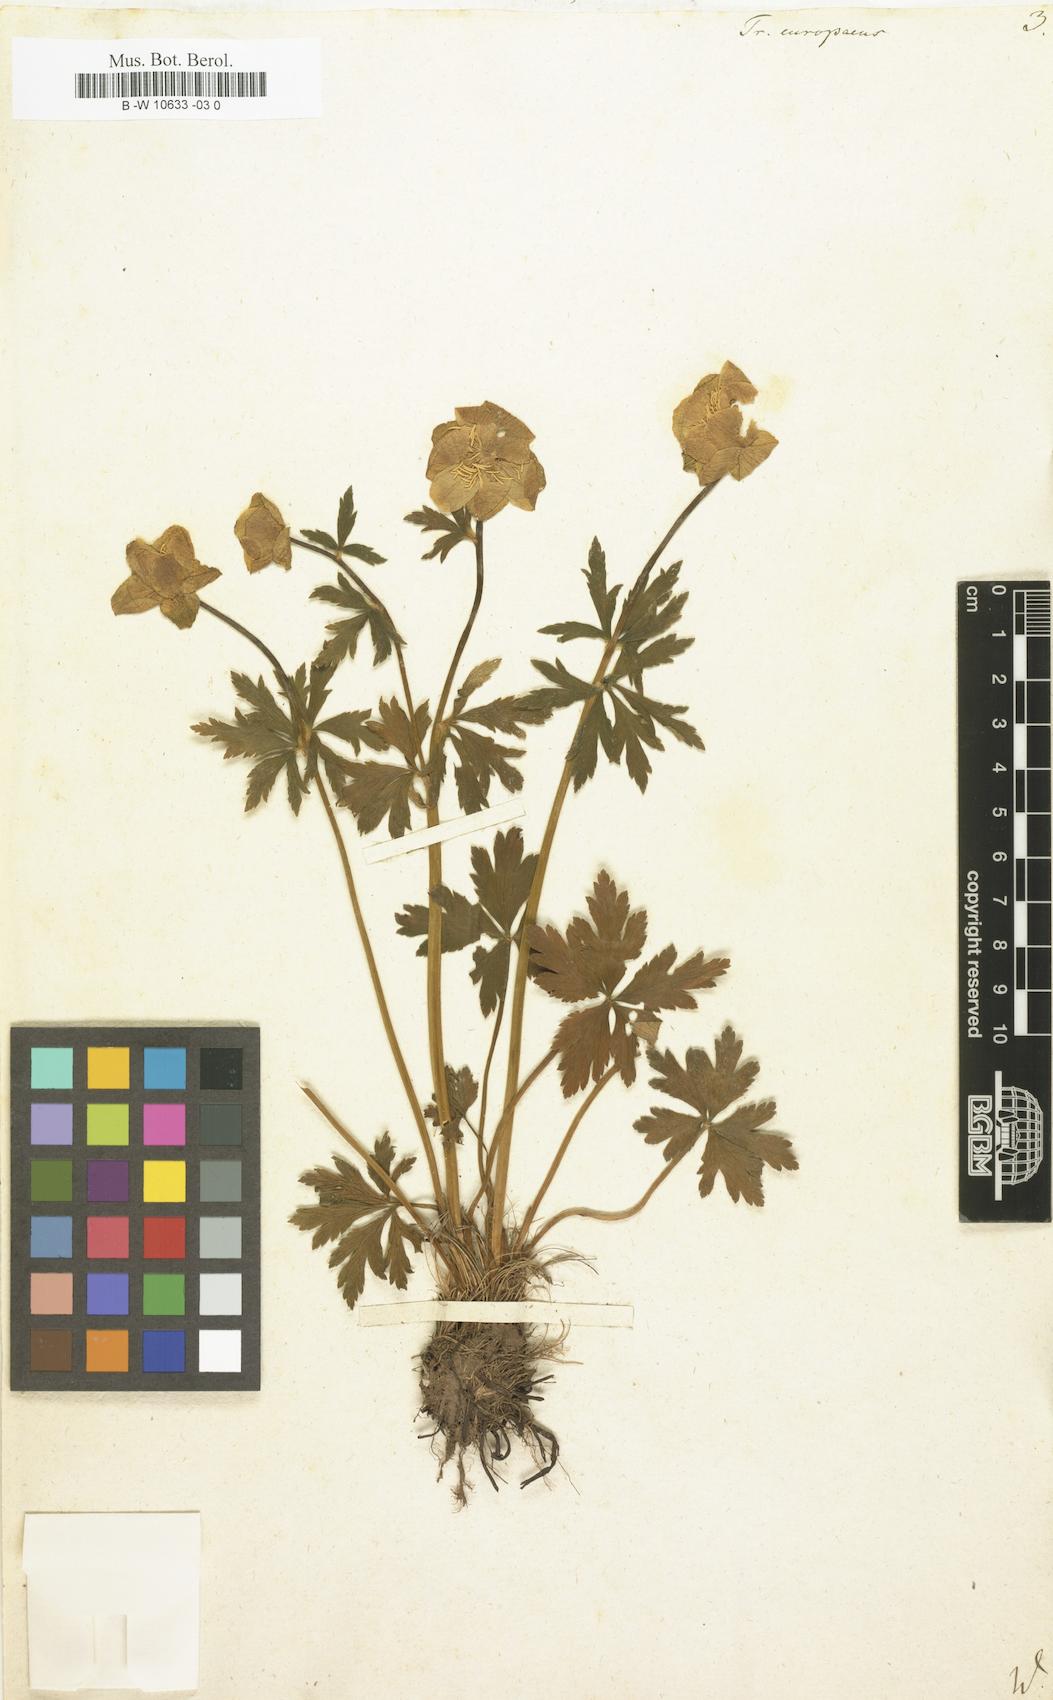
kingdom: Plantae
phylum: Tracheophyta
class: Magnoliopsida
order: Ranunculales
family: Ranunculaceae
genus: Trollius
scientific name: Trollius europaeus
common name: European globeflower
